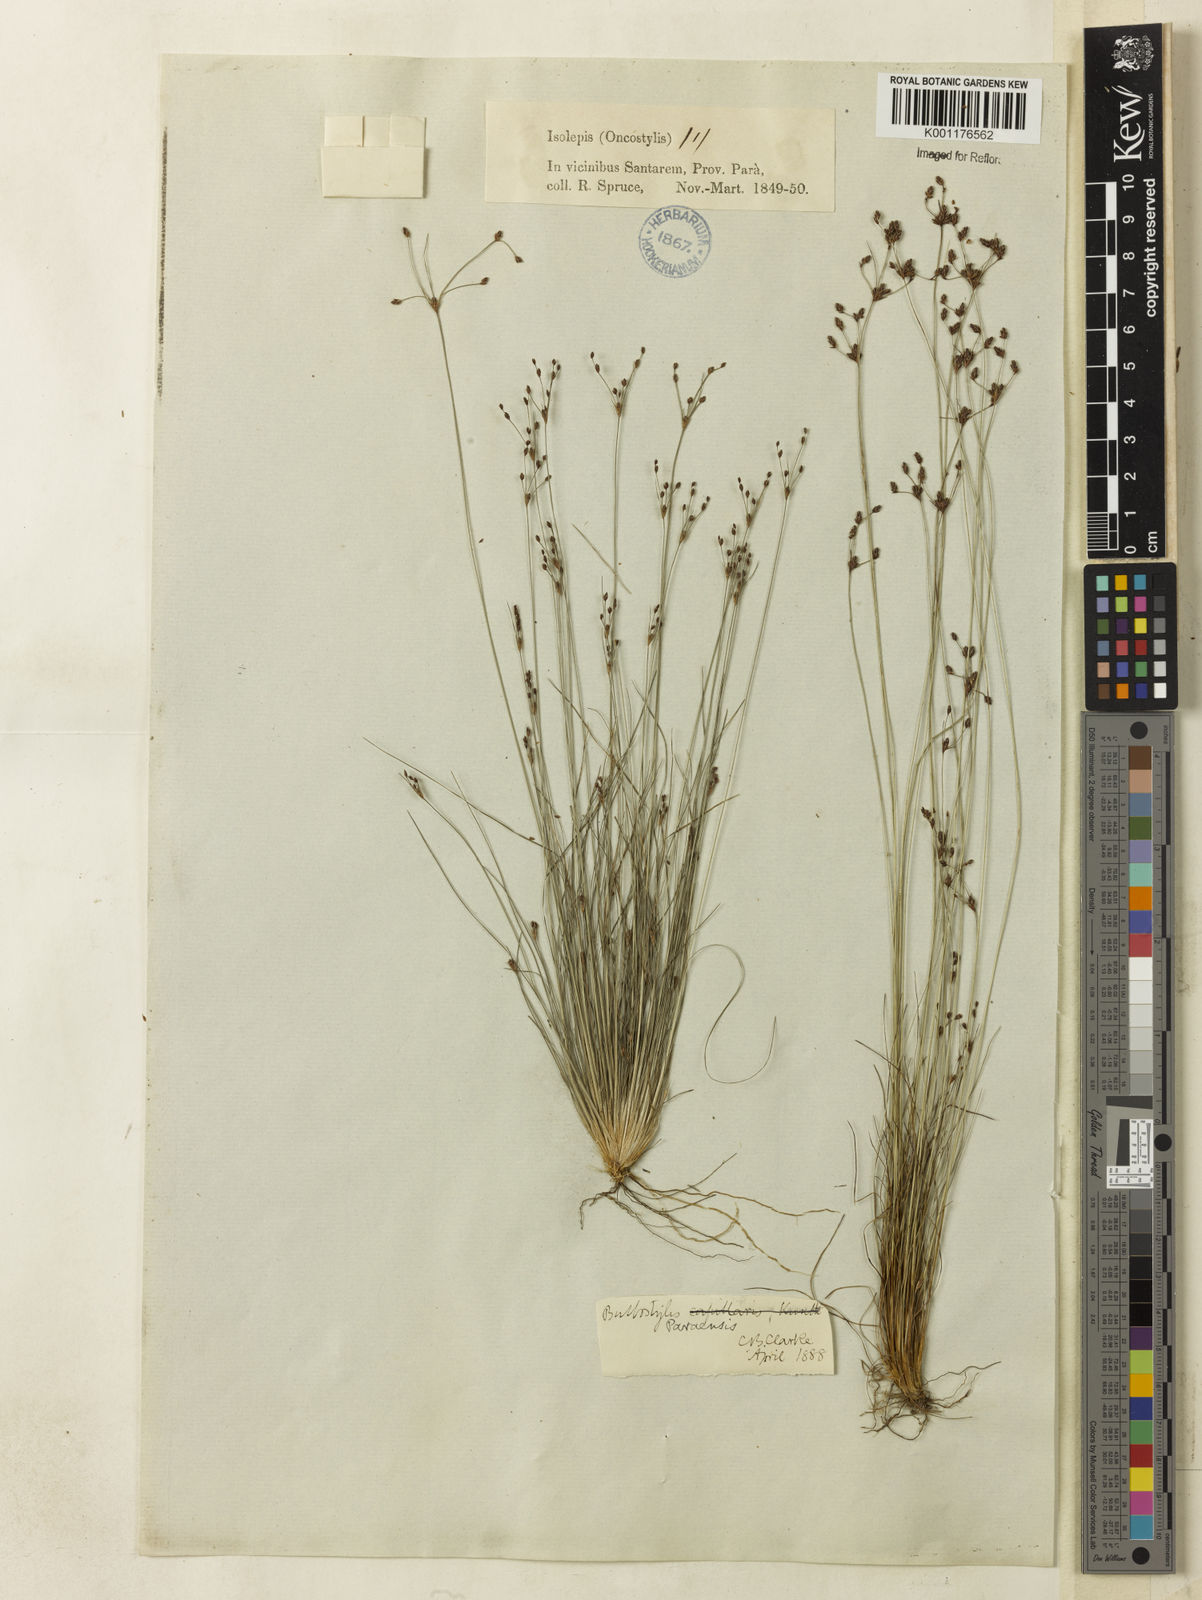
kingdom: Plantae
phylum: Tracheophyta
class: Liliopsida
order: Poales
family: Cyperaceae
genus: Bulbostylis
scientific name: Bulbostylis paraensis
